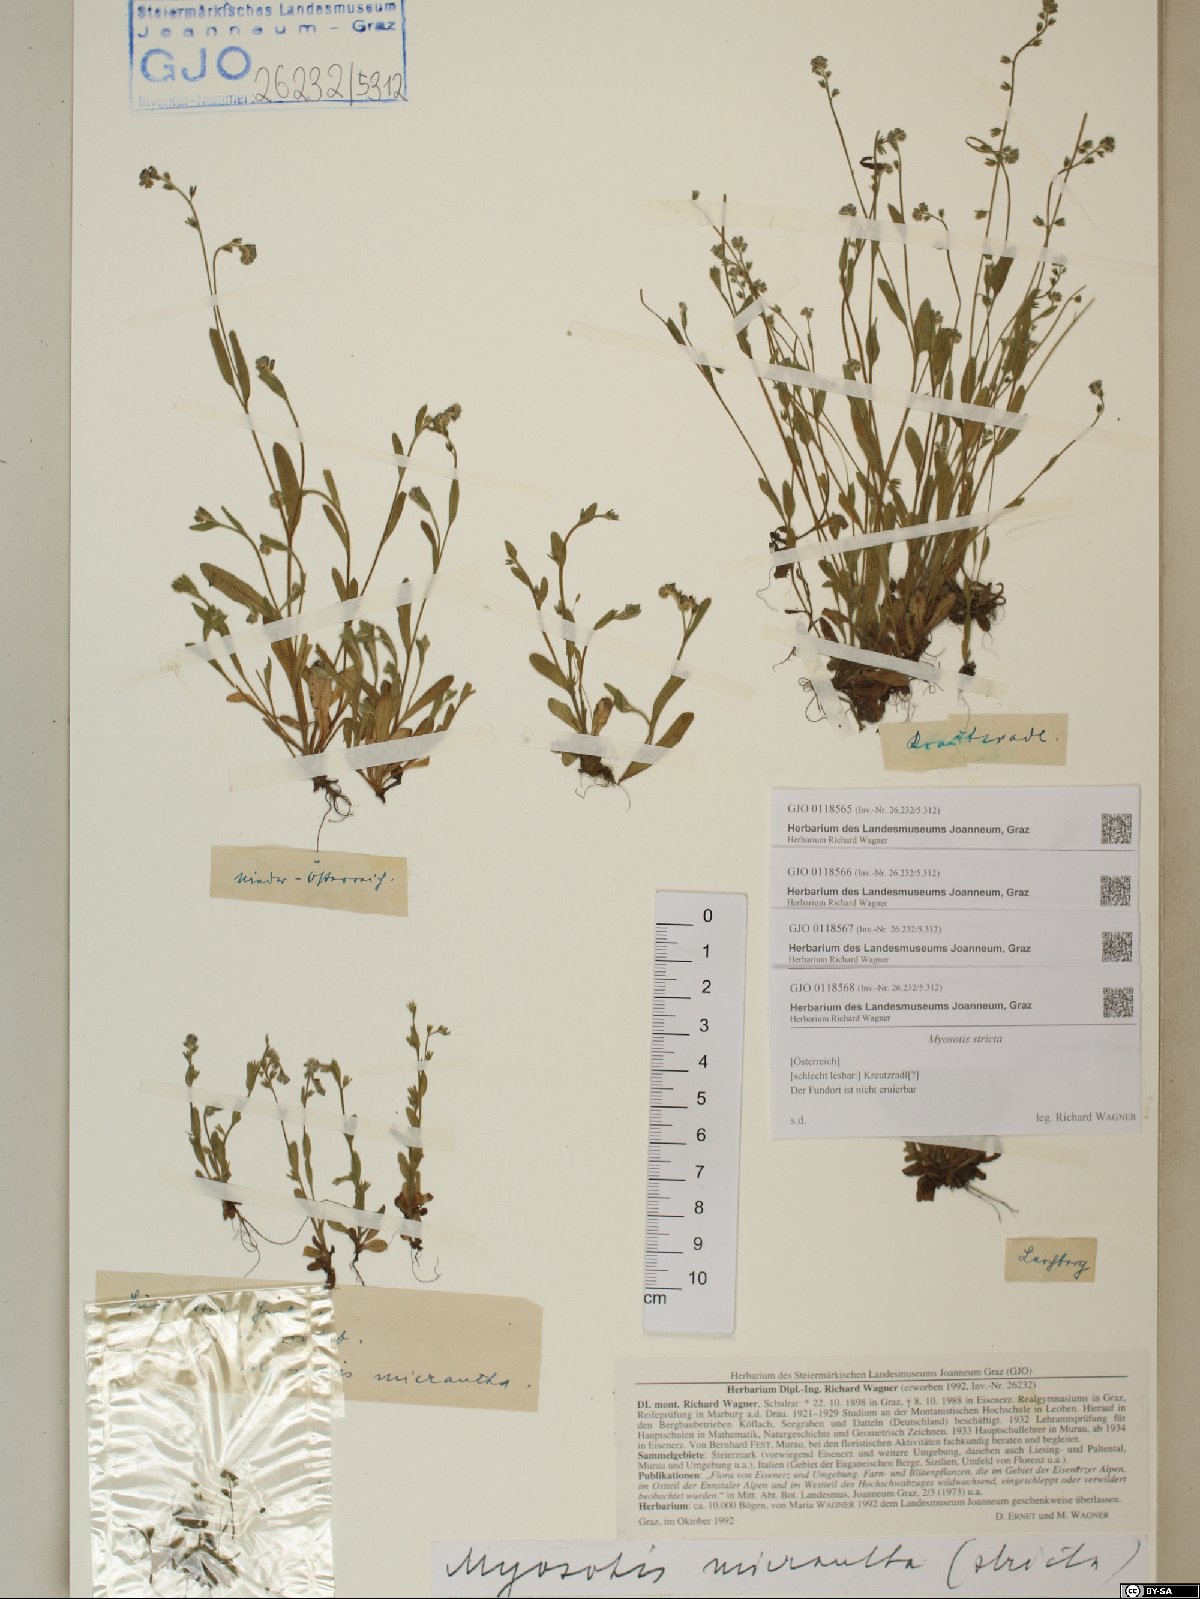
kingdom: Plantae
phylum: Tracheophyta
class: Magnoliopsida
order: Boraginales
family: Boraginaceae
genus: Myosotis
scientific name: Myosotis stricta
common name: Strict forget-me-not
